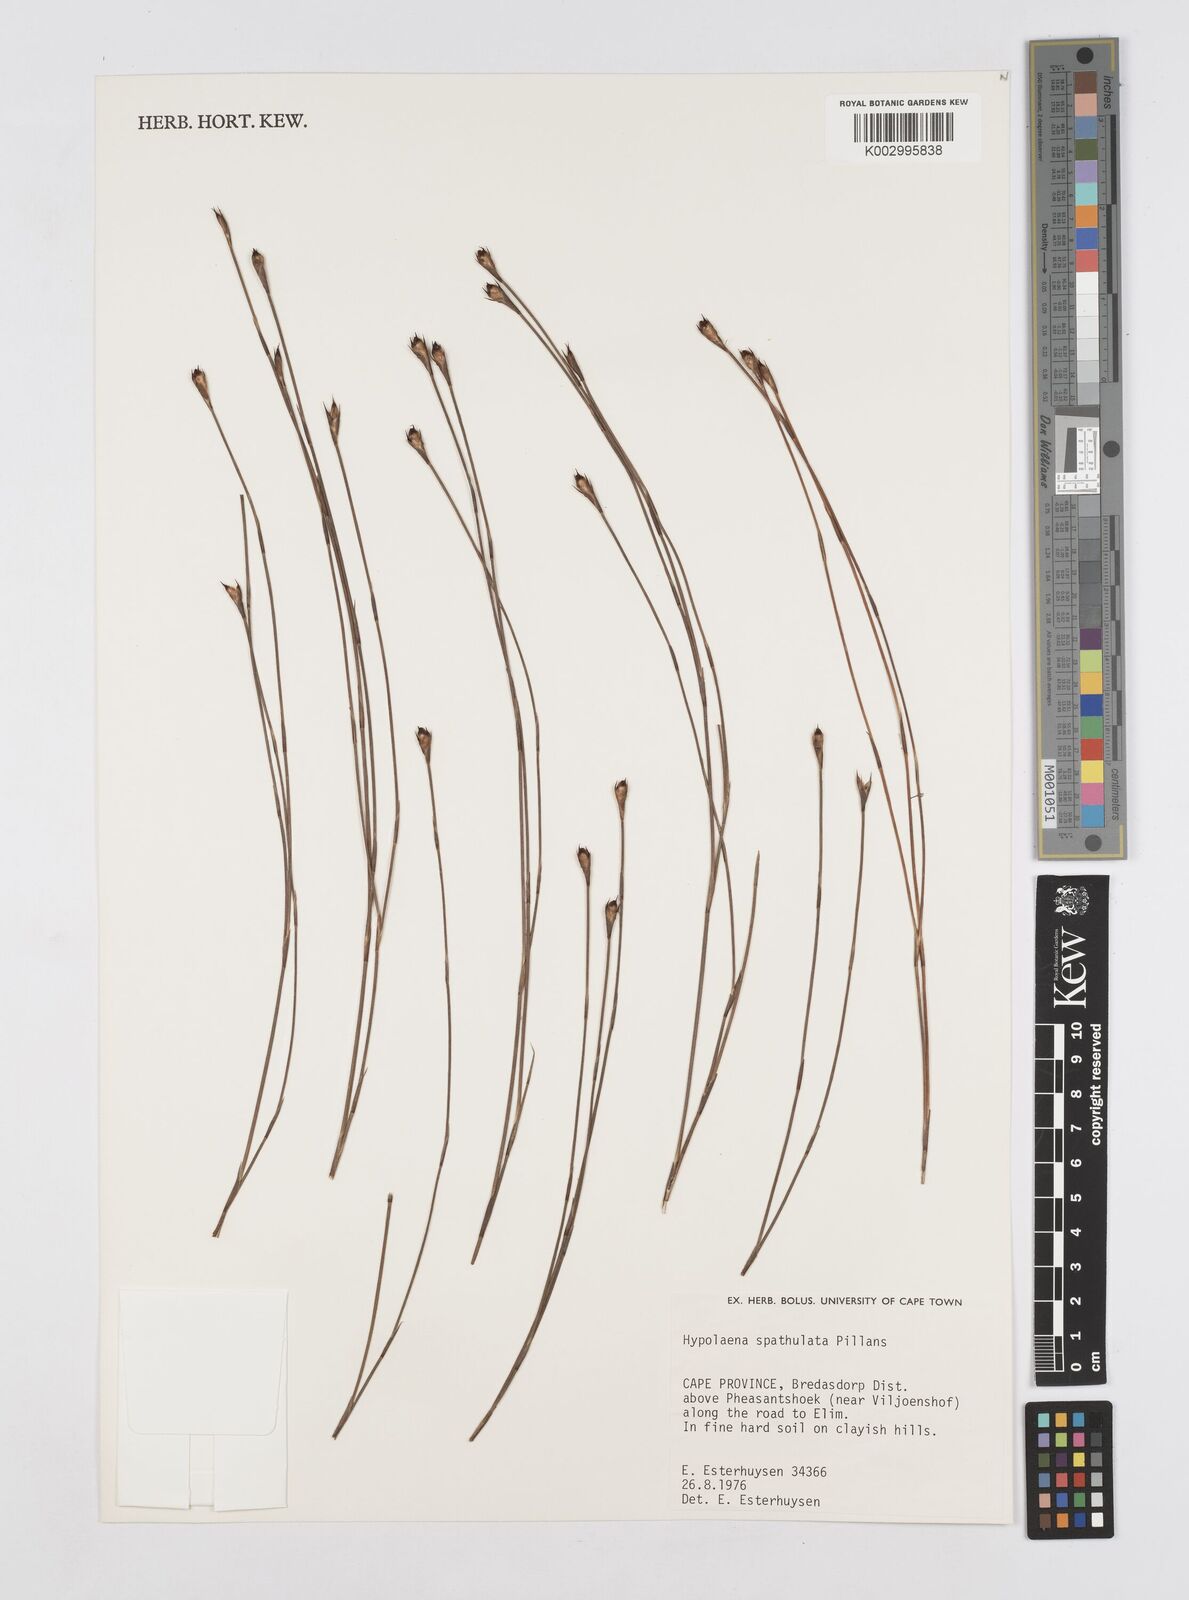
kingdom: Plantae
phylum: Tracheophyta
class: Liliopsida
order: Poales
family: Restionaceae
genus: Mastersiella
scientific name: Mastersiella spathulata
